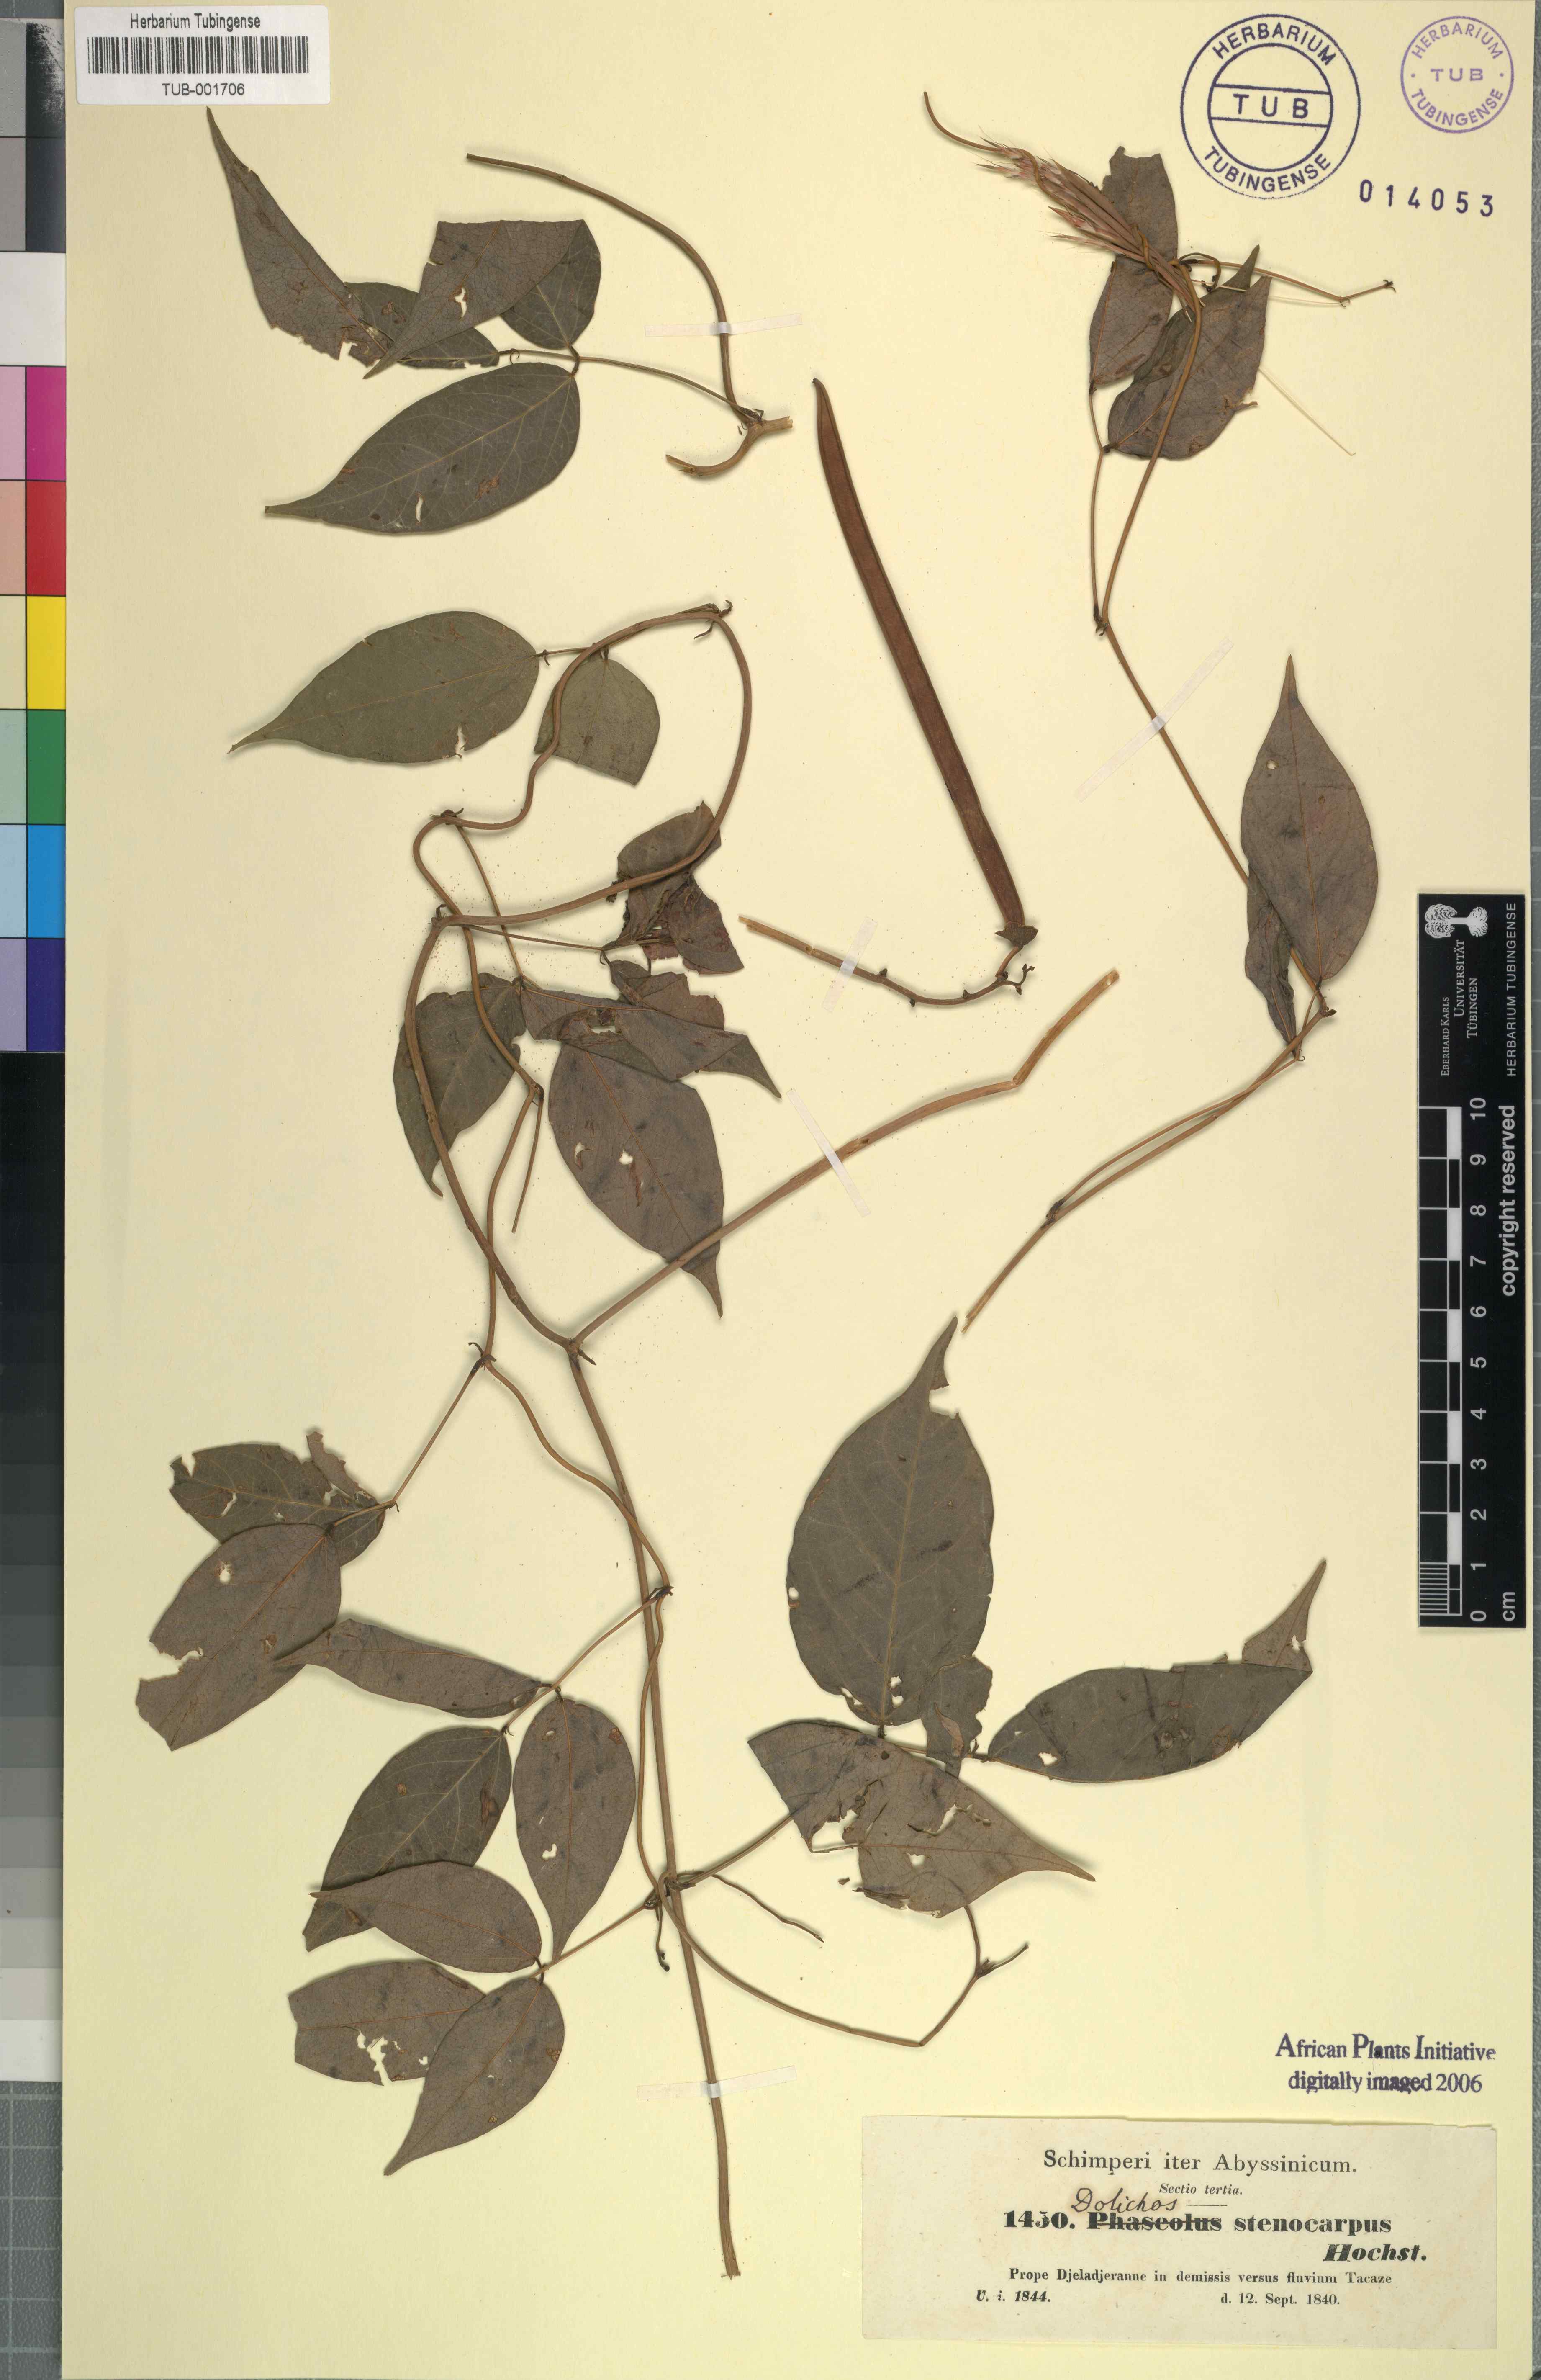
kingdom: Plantae
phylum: Tracheophyta
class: Magnoliopsida
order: Fabales
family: Fabaceae
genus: Sphenostylis
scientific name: Sphenostylis stenocarpa
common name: Yam-pea
